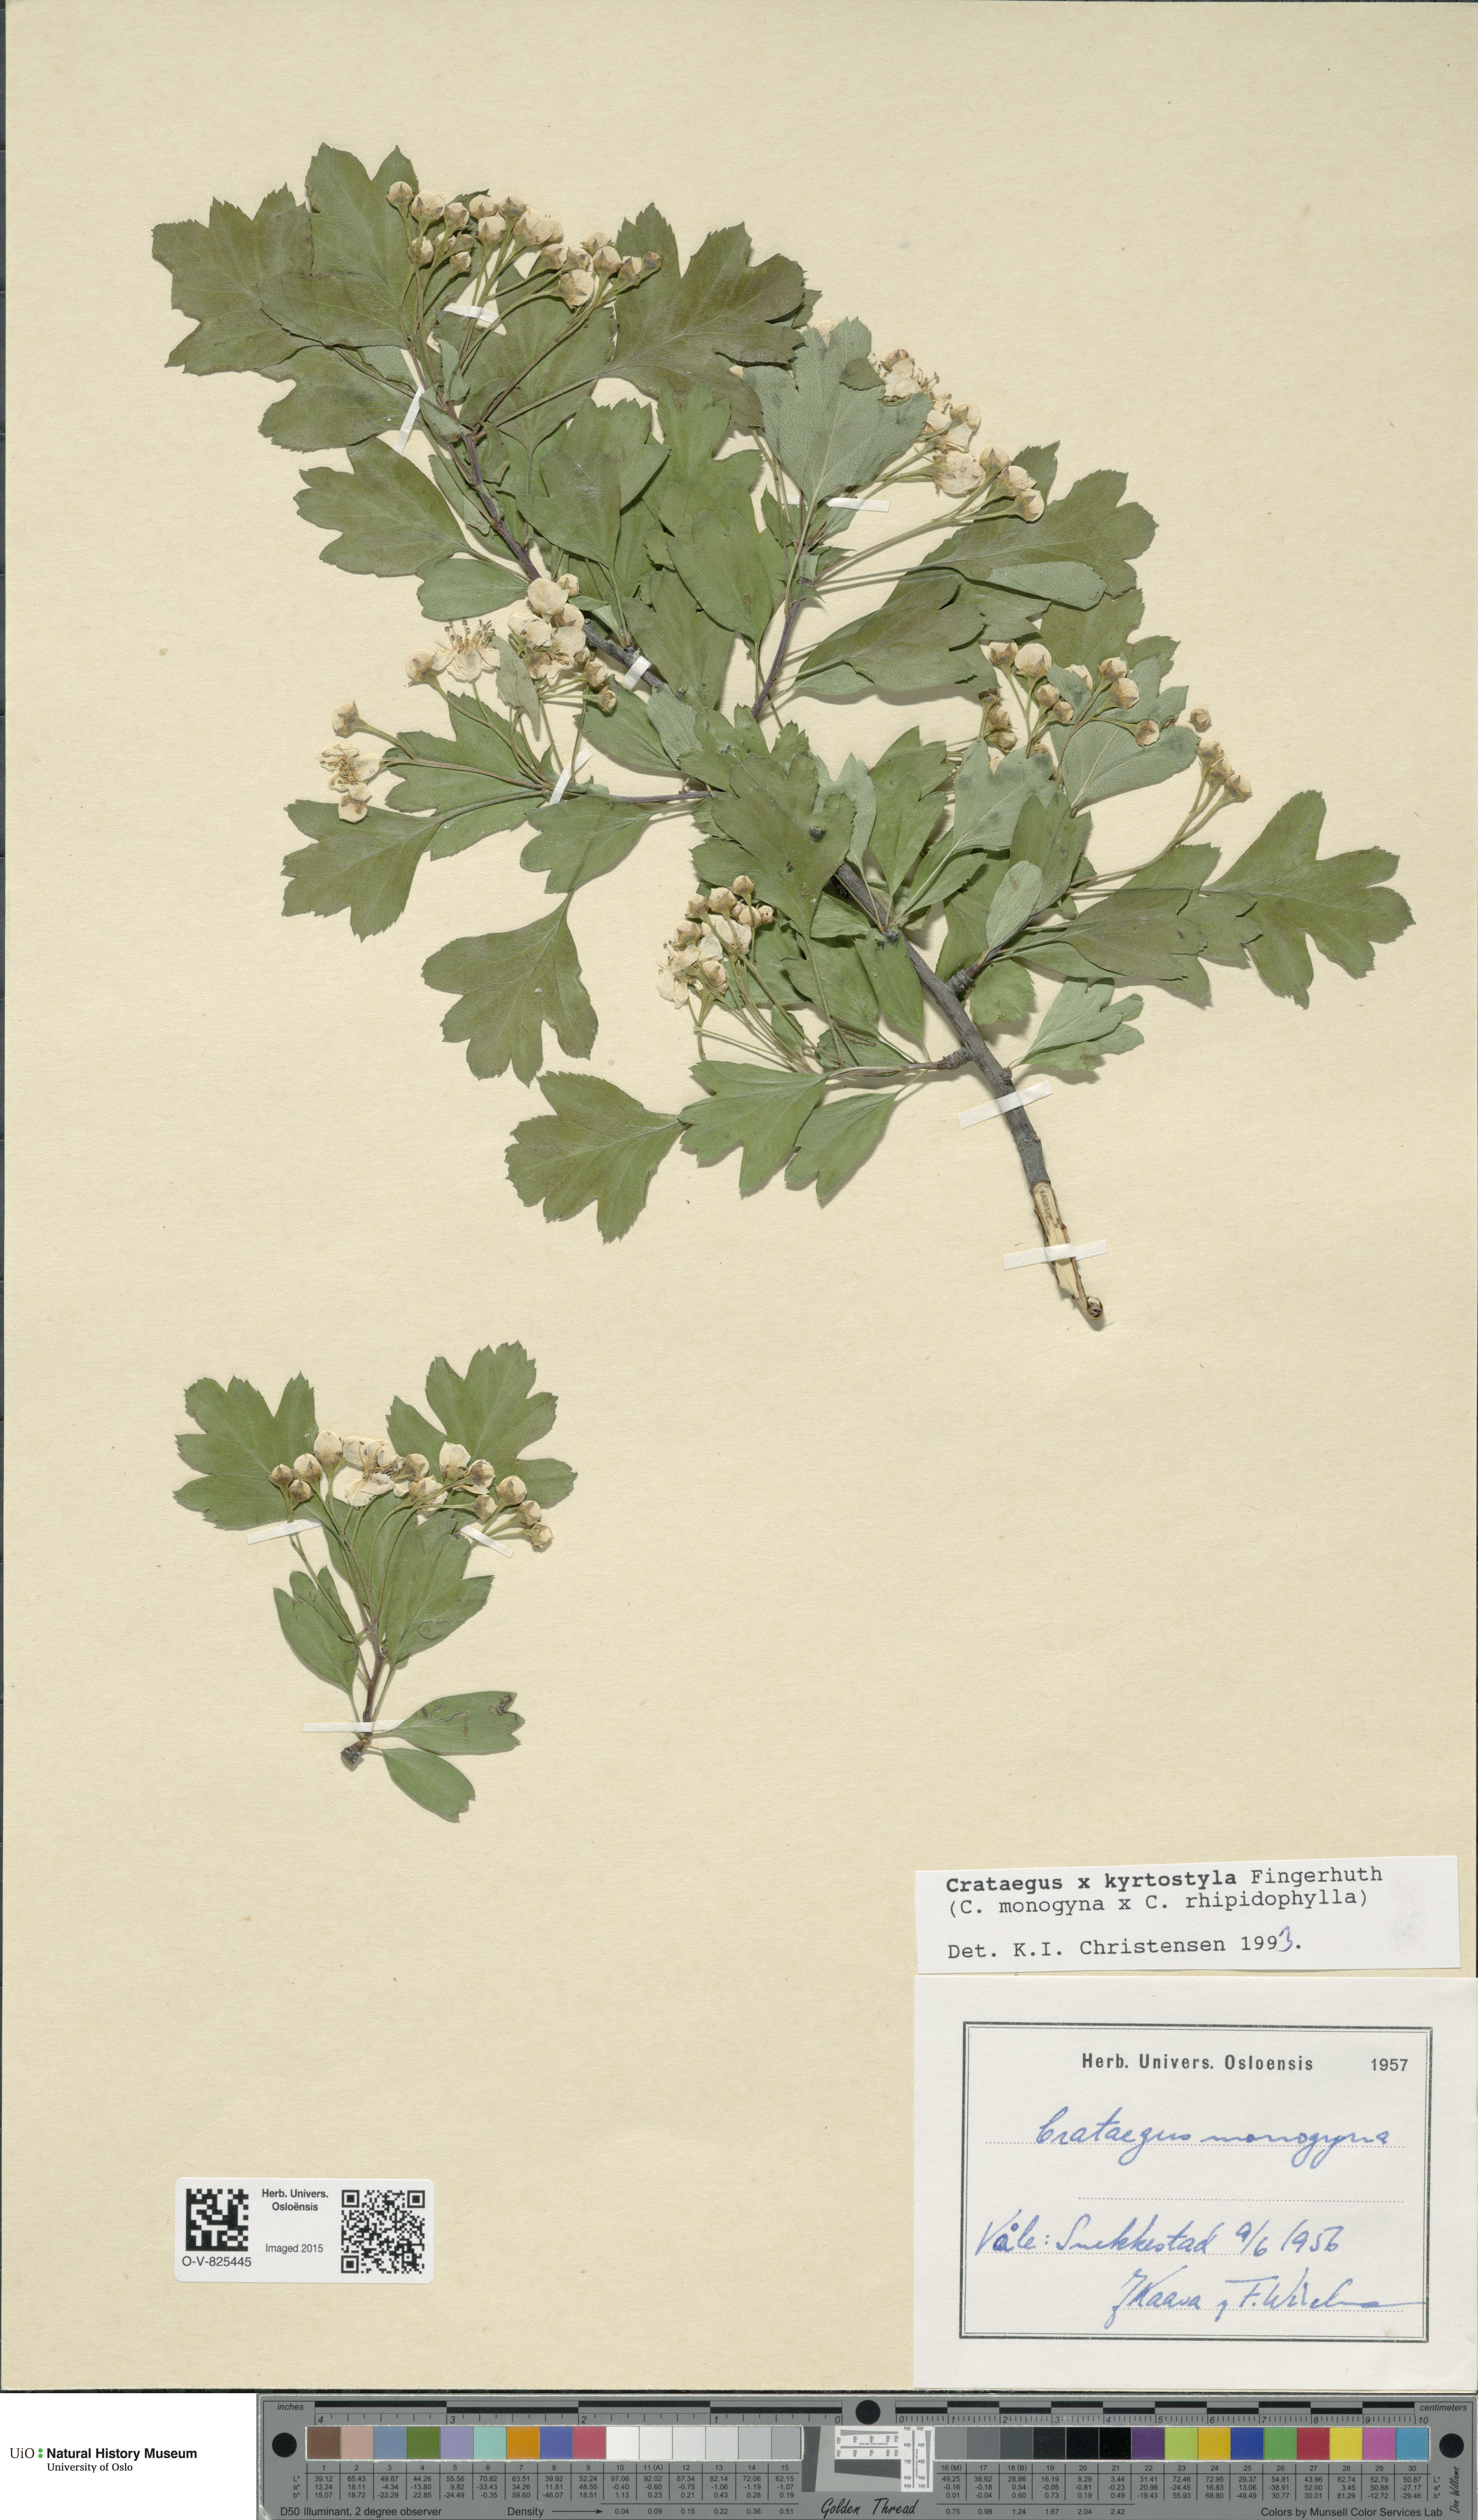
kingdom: Plantae
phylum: Tracheophyta
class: Magnoliopsida
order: Rosales
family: Rosaceae
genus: Crataegus
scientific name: Crataegus kyrtostyla
